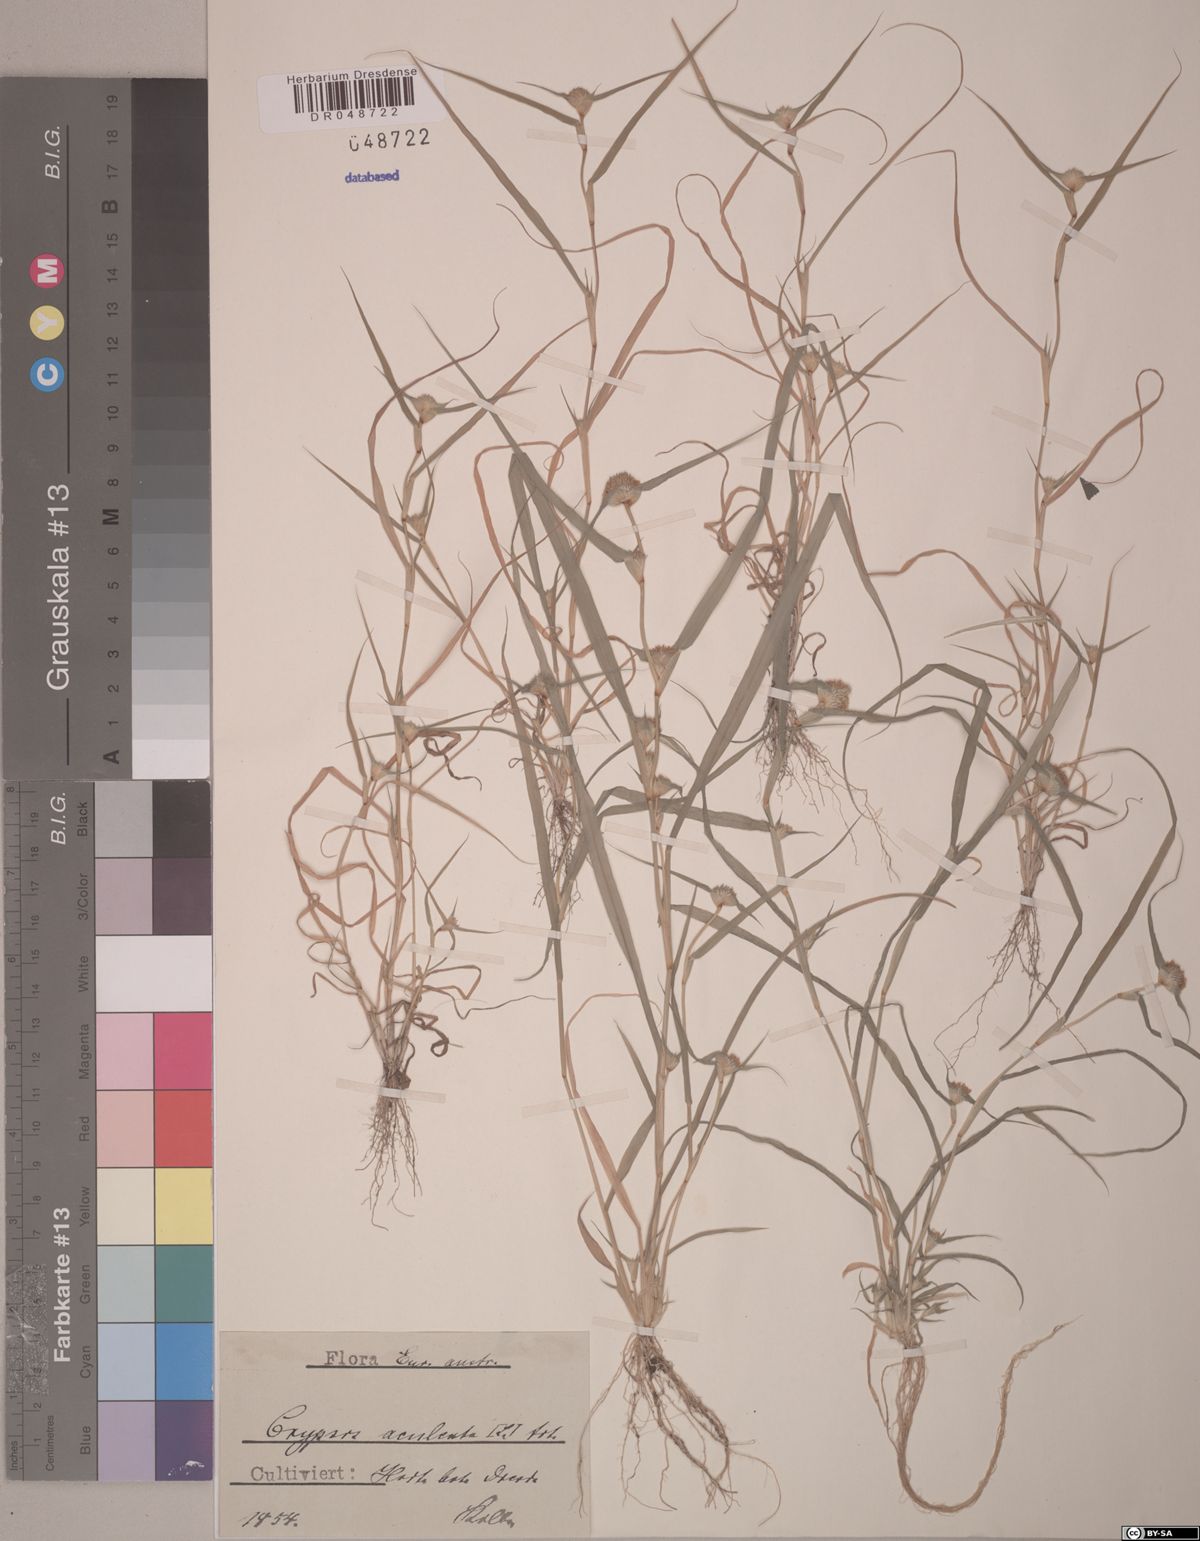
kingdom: Plantae
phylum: Tracheophyta
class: Liliopsida
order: Poales
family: Poaceae
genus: Sporobolus
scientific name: Sporobolus aculeatus
